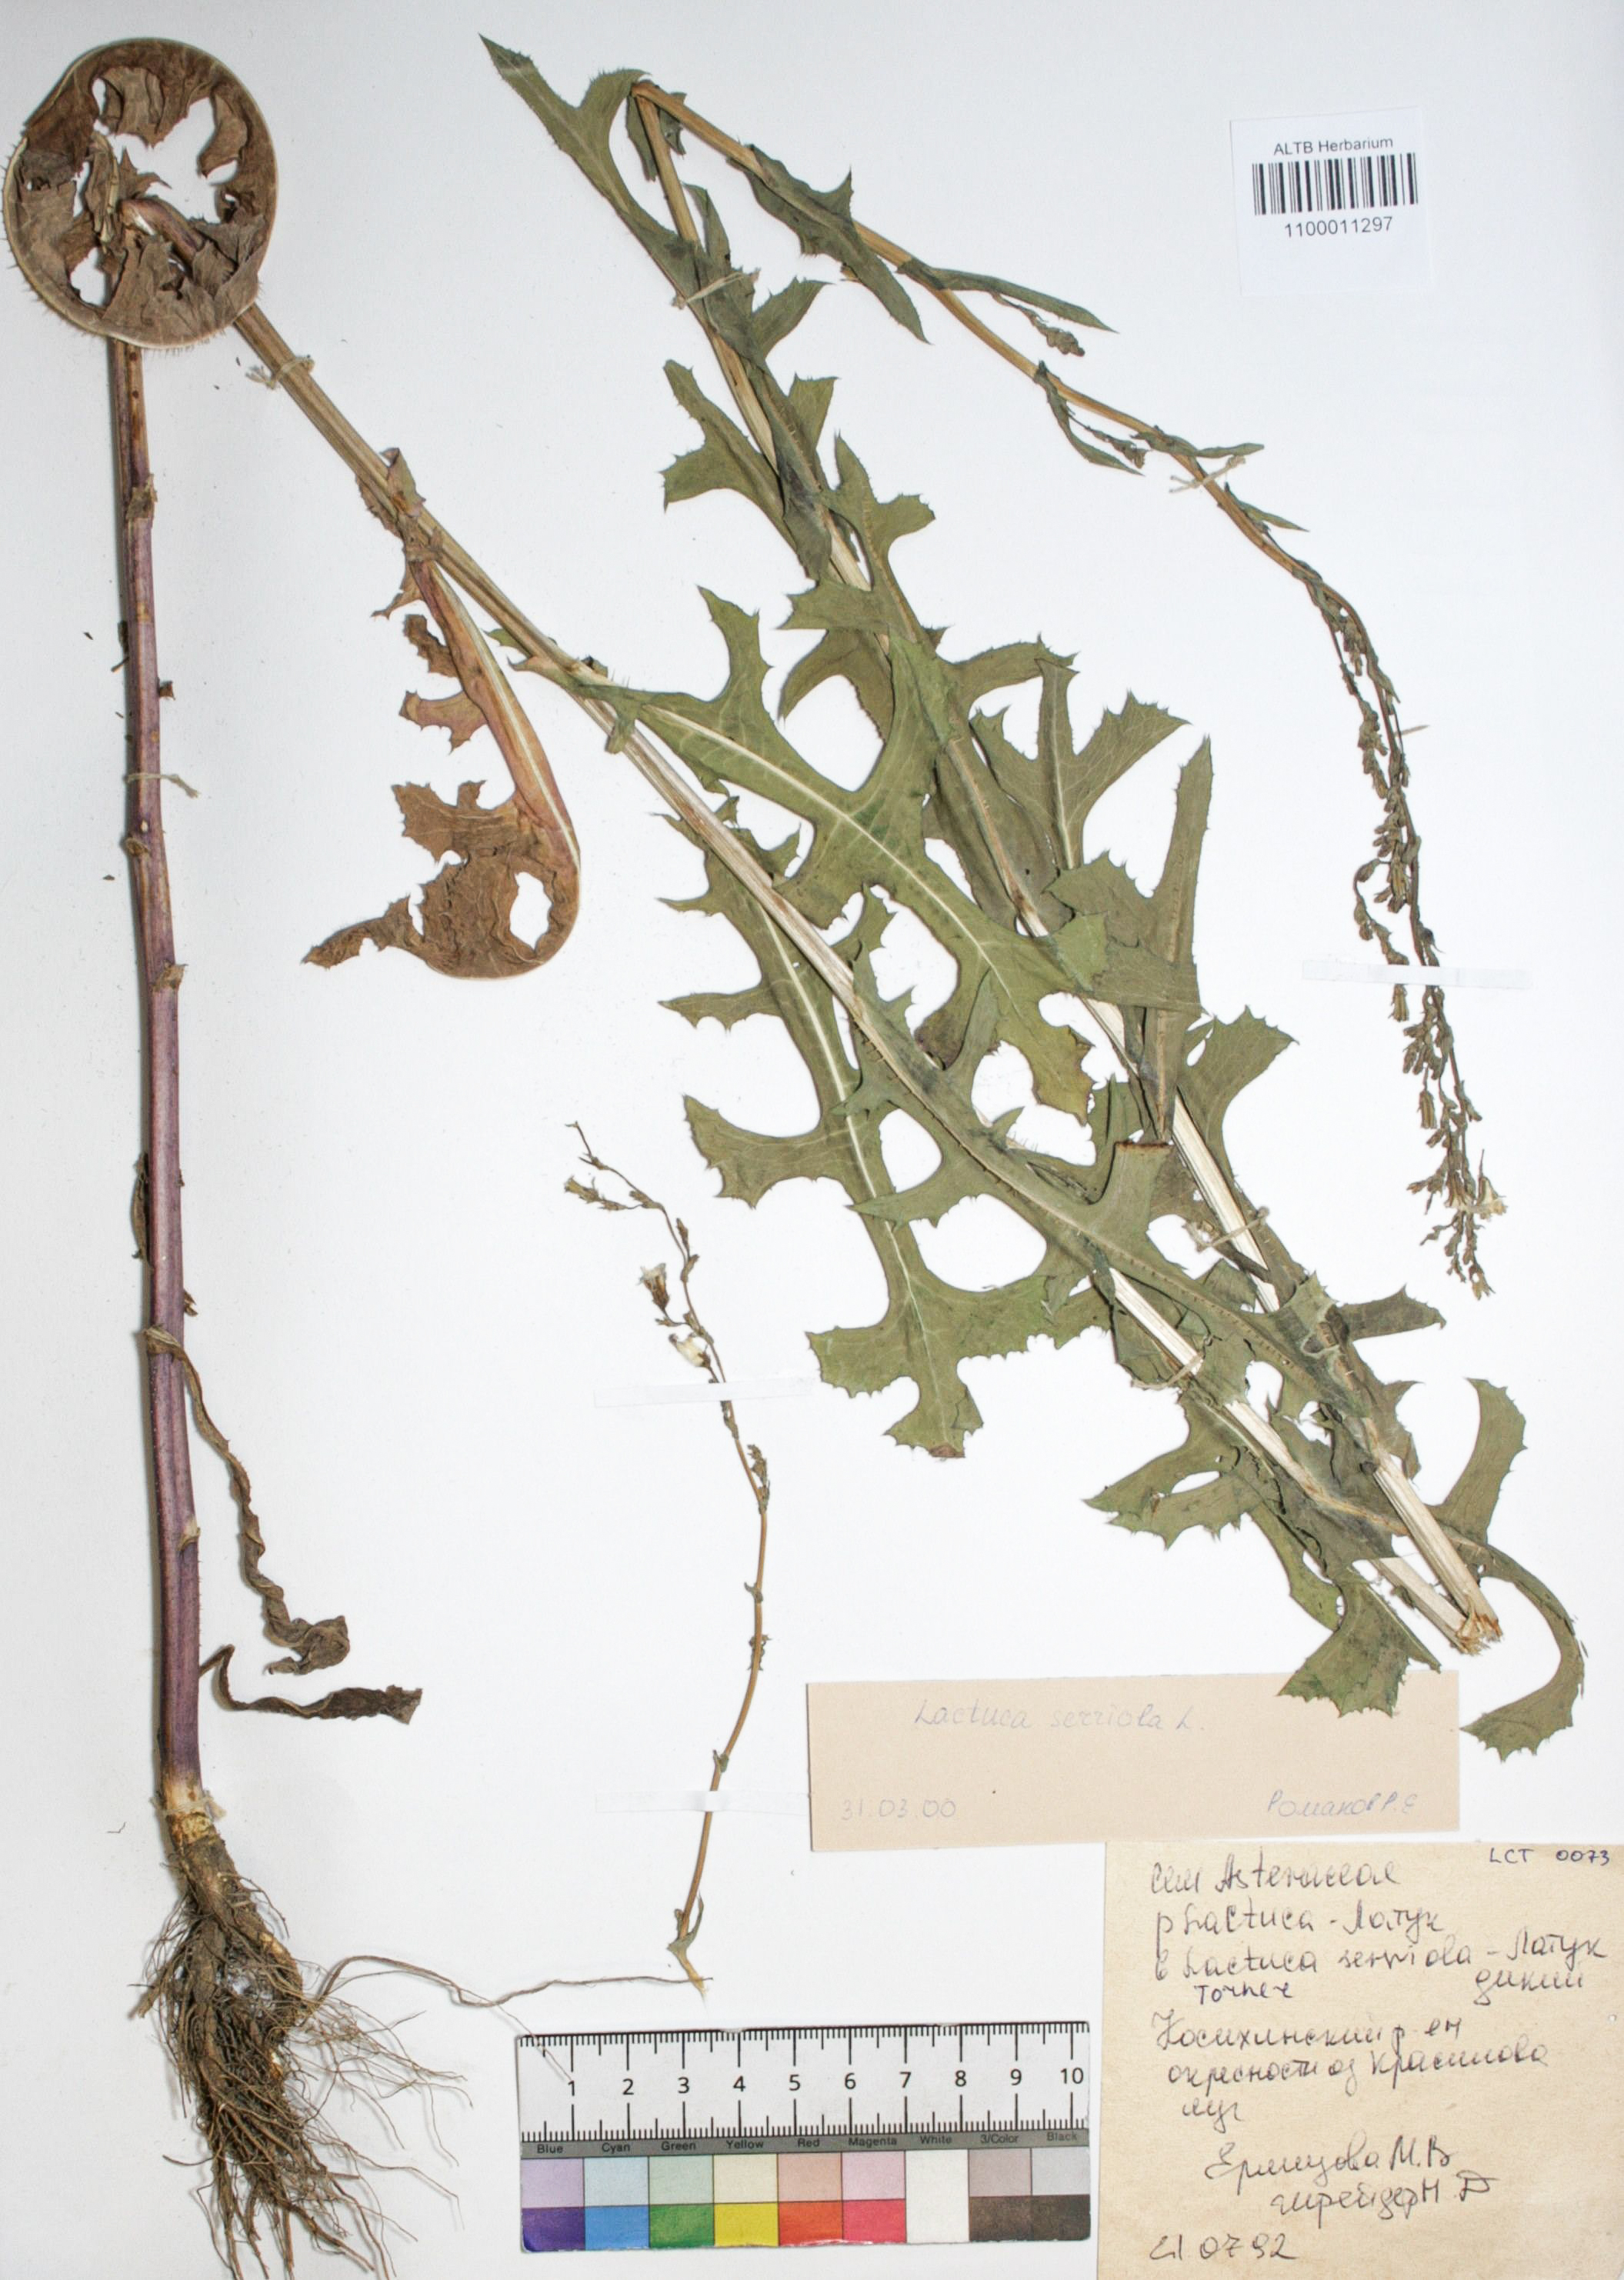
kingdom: Plantae
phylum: Tracheophyta
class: Magnoliopsida
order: Asterales
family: Asteraceae
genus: Lactuca
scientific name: Lactuca serriola
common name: Prickly lettuce
